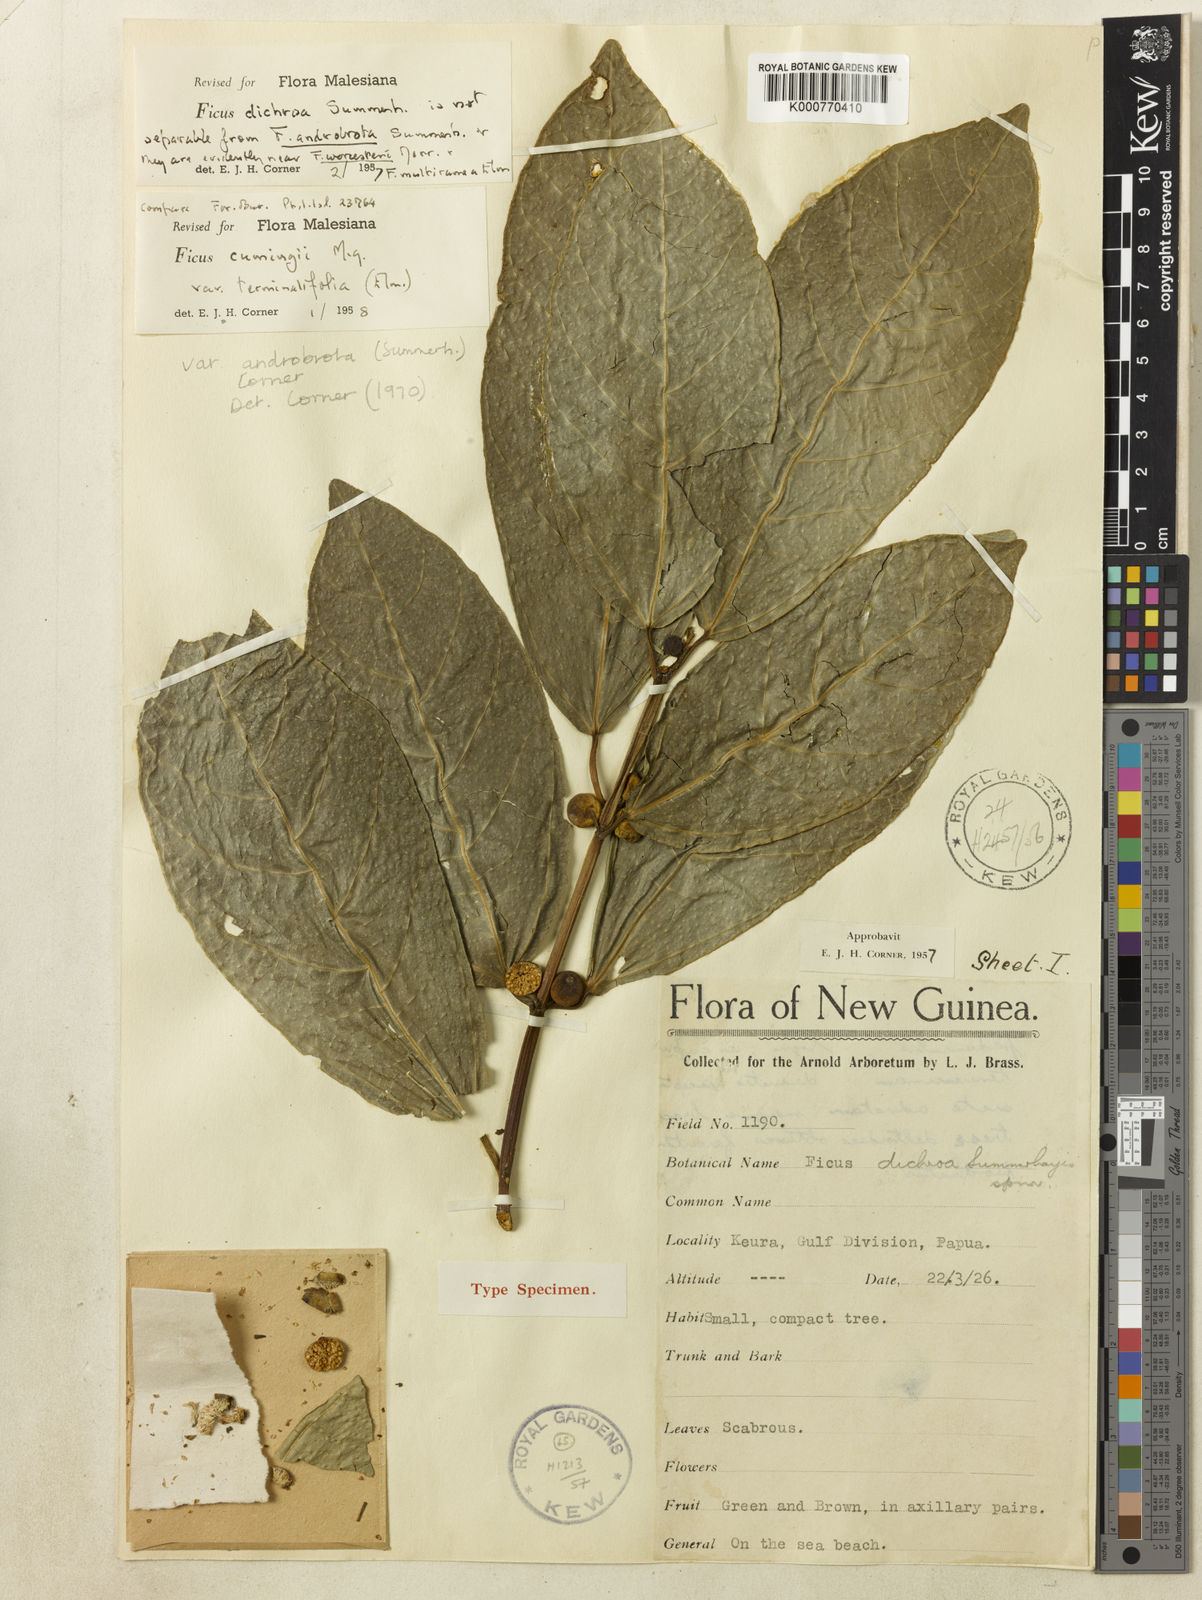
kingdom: Plantae
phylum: Tracheophyta
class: Magnoliopsida
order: Rosales
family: Moraceae
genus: Ficus
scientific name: Ficus cumingii
